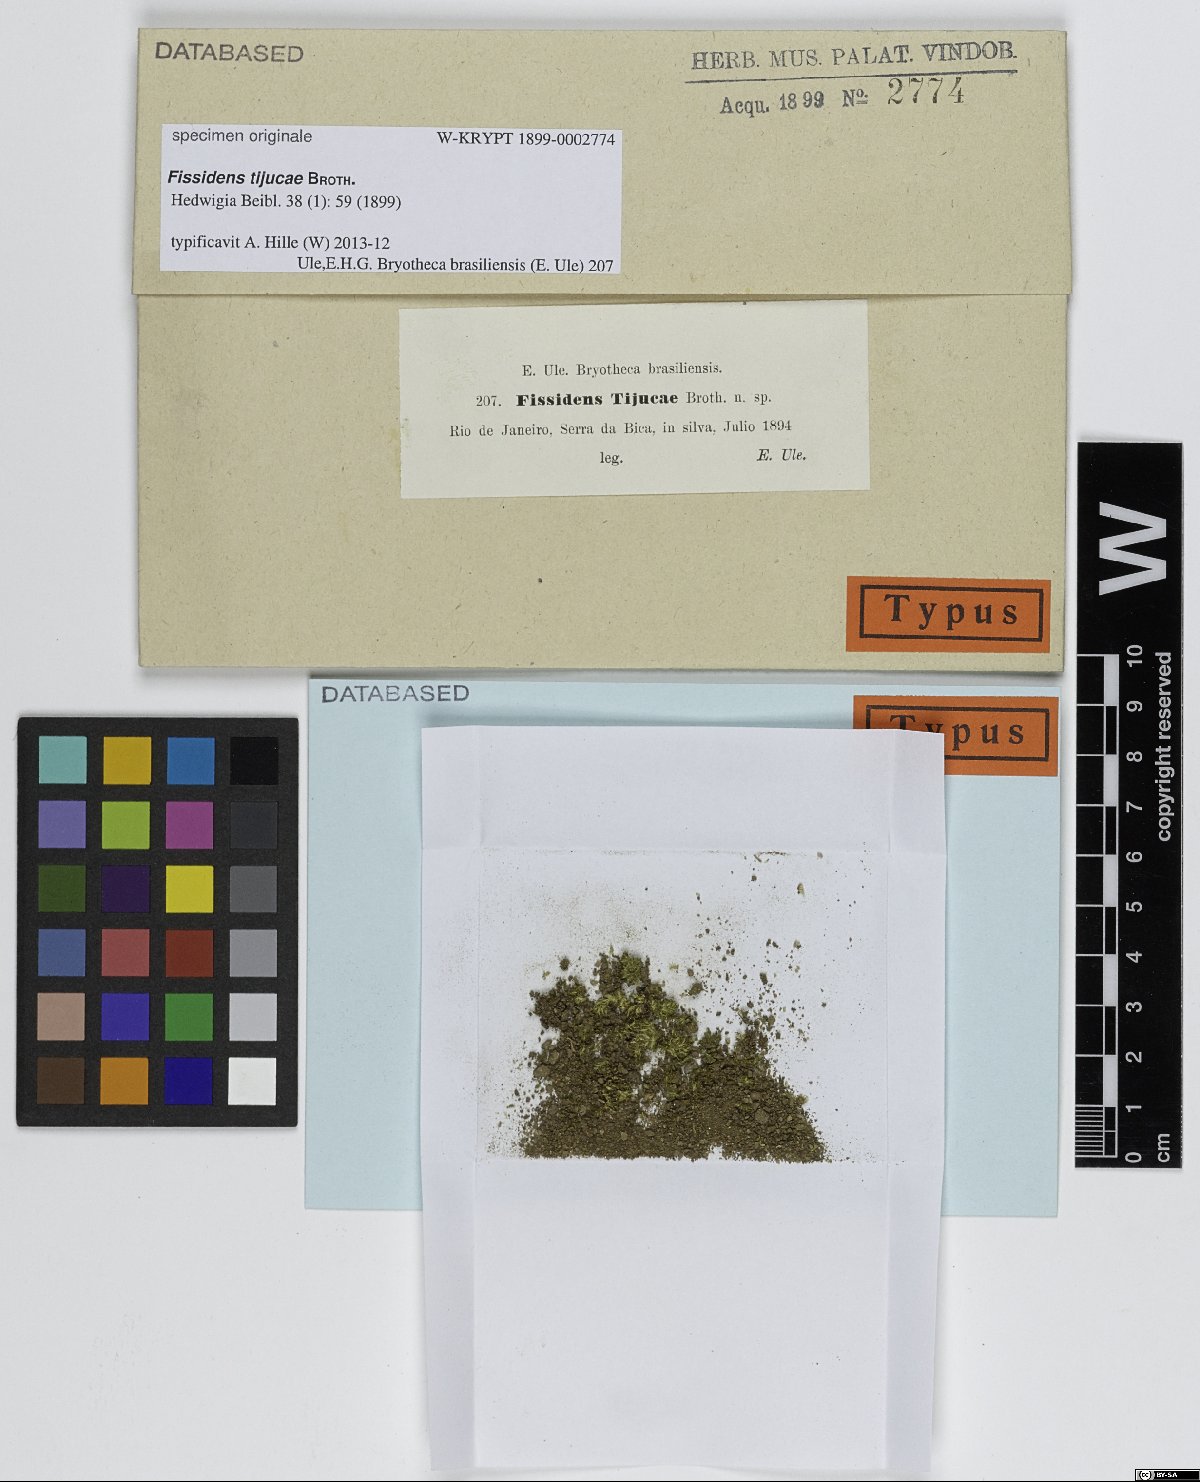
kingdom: Plantae
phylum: Bryophyta
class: Bryopsida
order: Dicranales
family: Fissidentaceae
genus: Fissidens
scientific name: Fissidens
